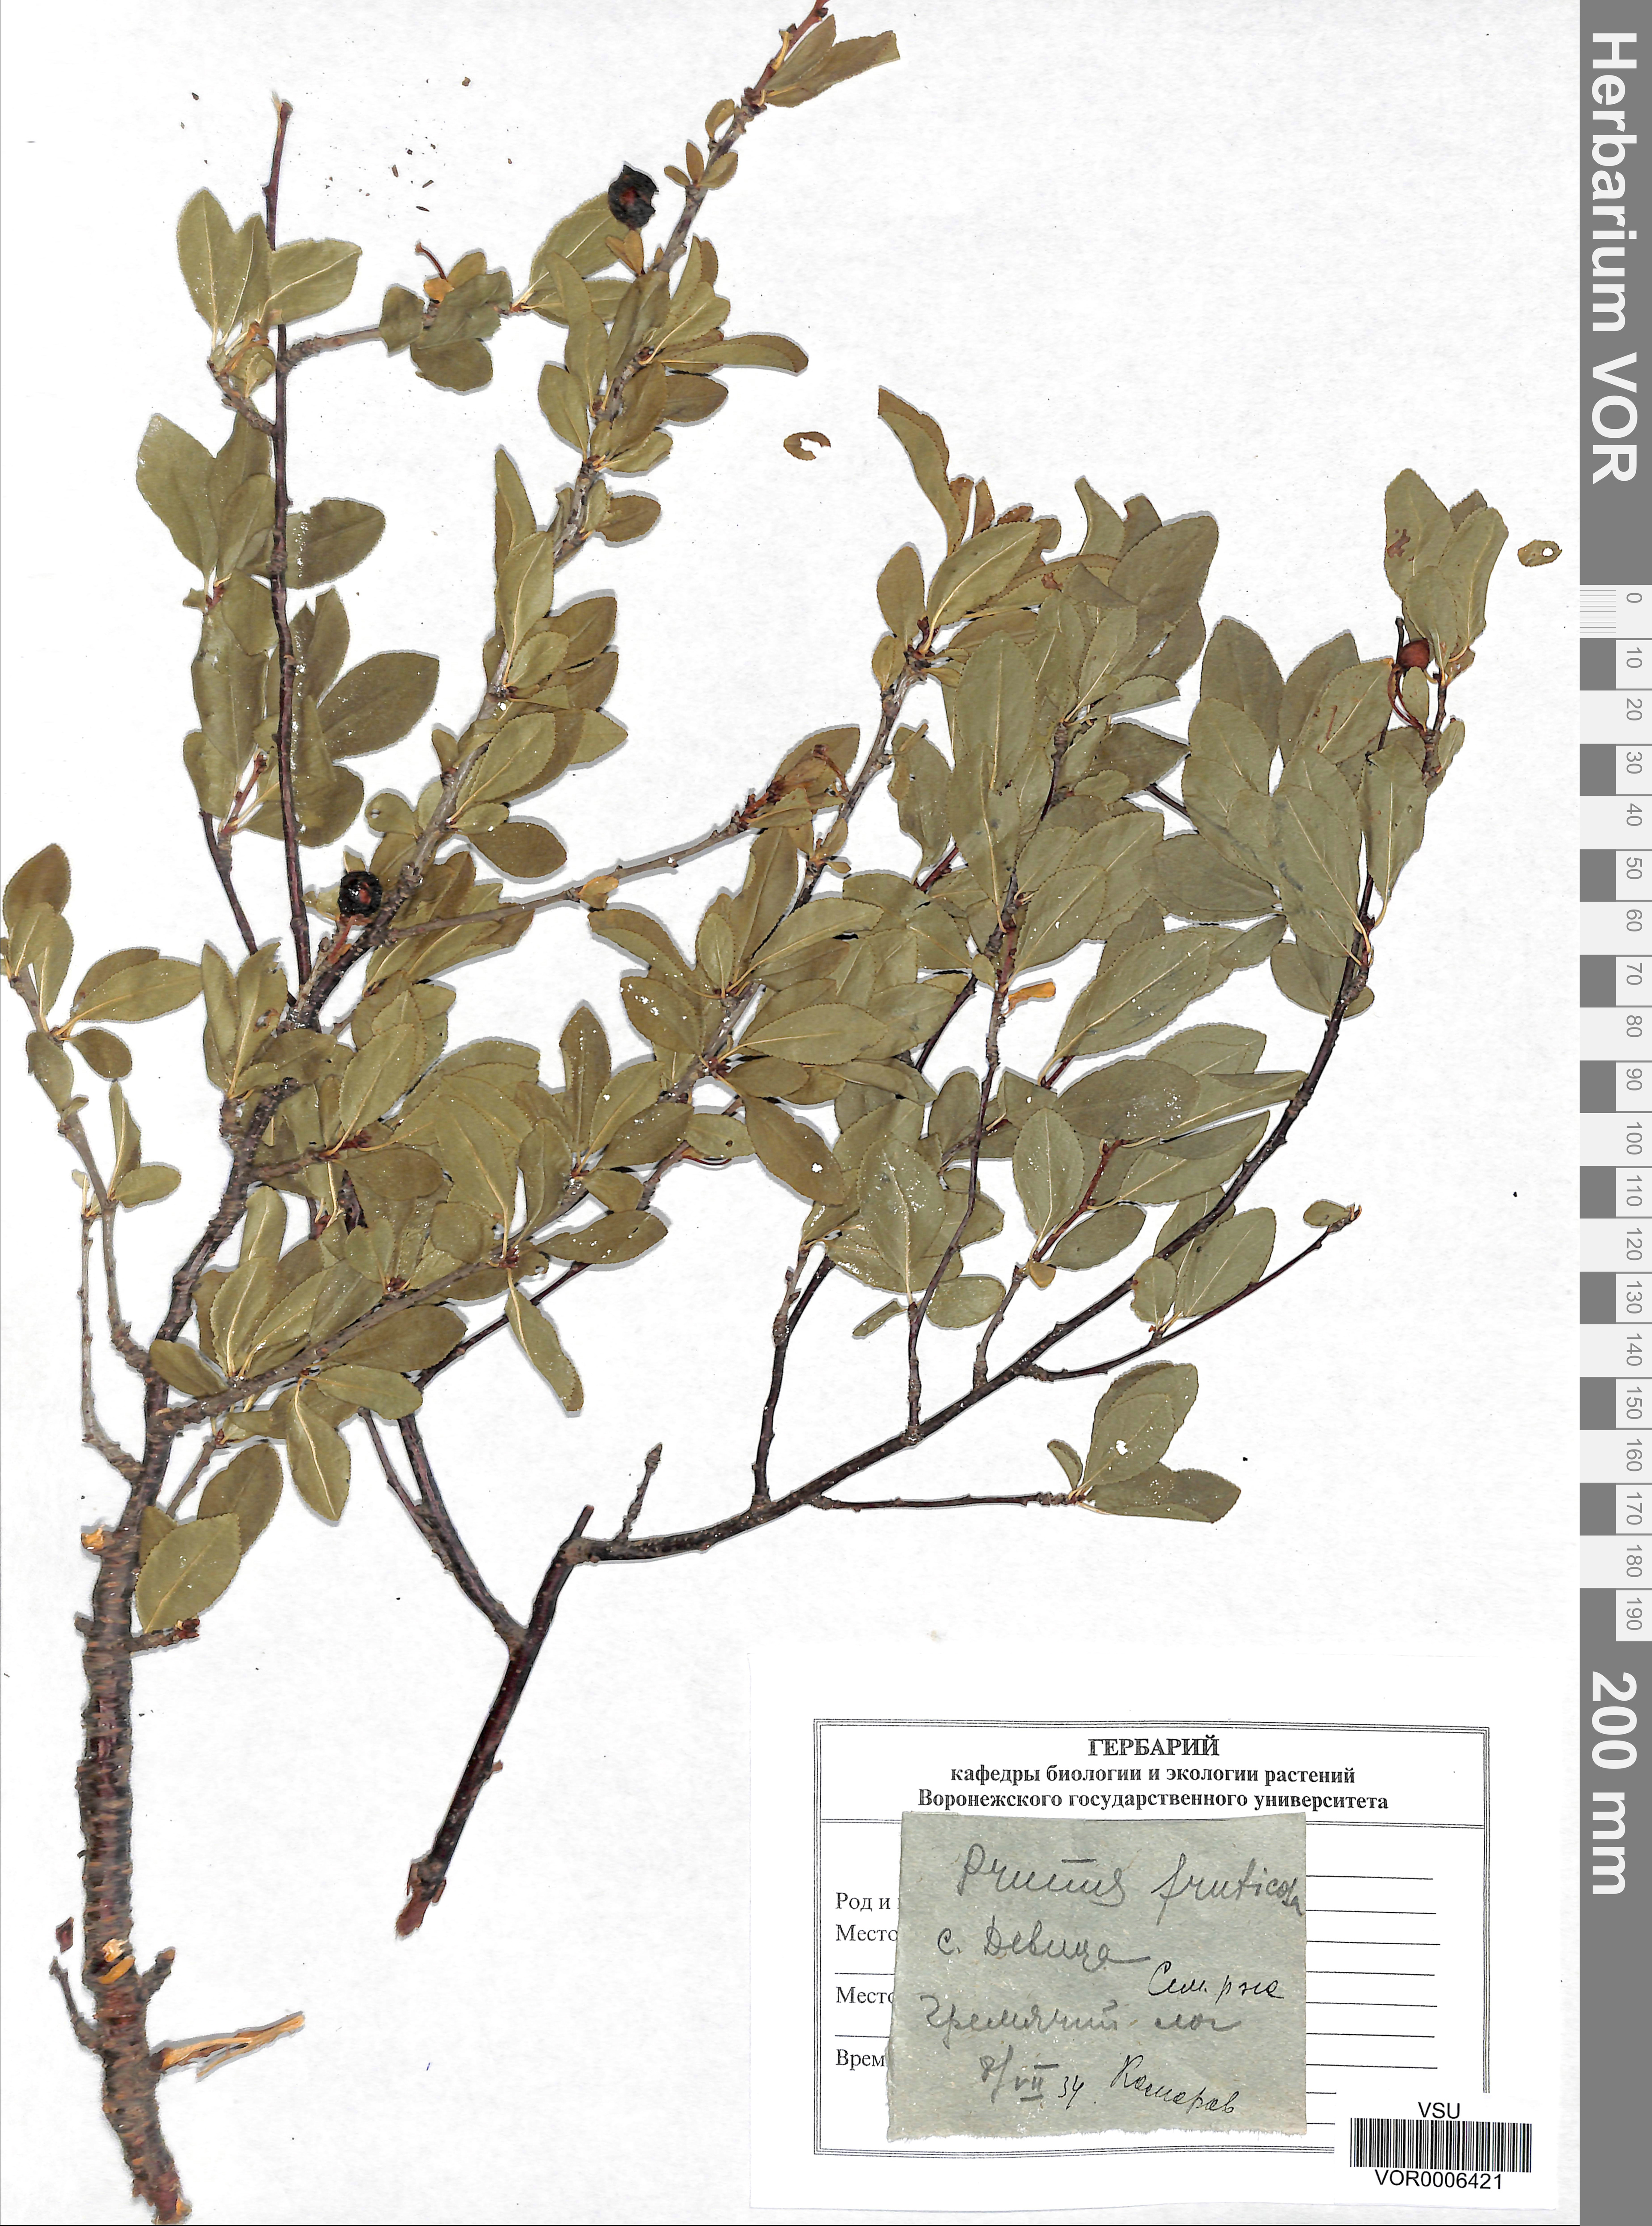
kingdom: Plantae
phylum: Tracheophyta
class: Magnoliopsida
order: Rosales
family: Rosaceae
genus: Prunus
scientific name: Prunus fruticosa
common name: European dwarf cherry
